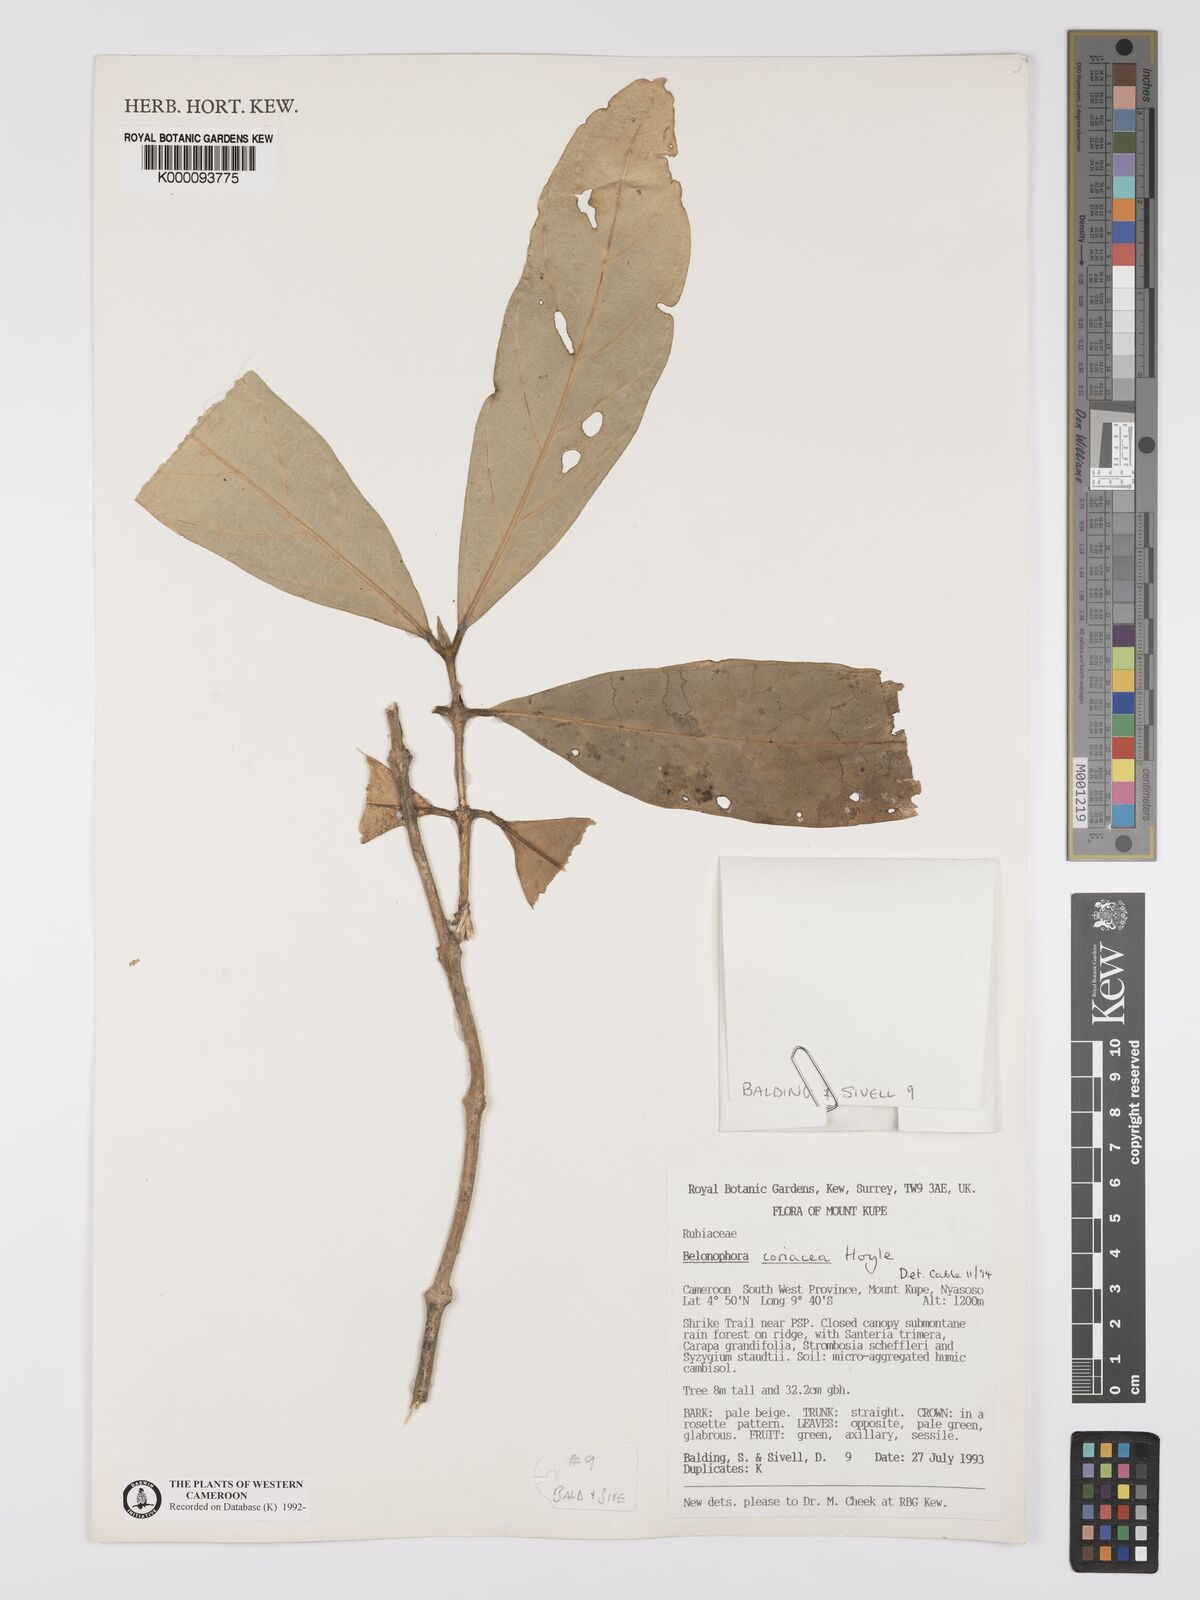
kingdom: Plantae
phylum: Tracheophyta
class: Magnoliopsida
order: Gentianales
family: Rubiaceae
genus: Belonophora
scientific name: Belonophora coriacea
